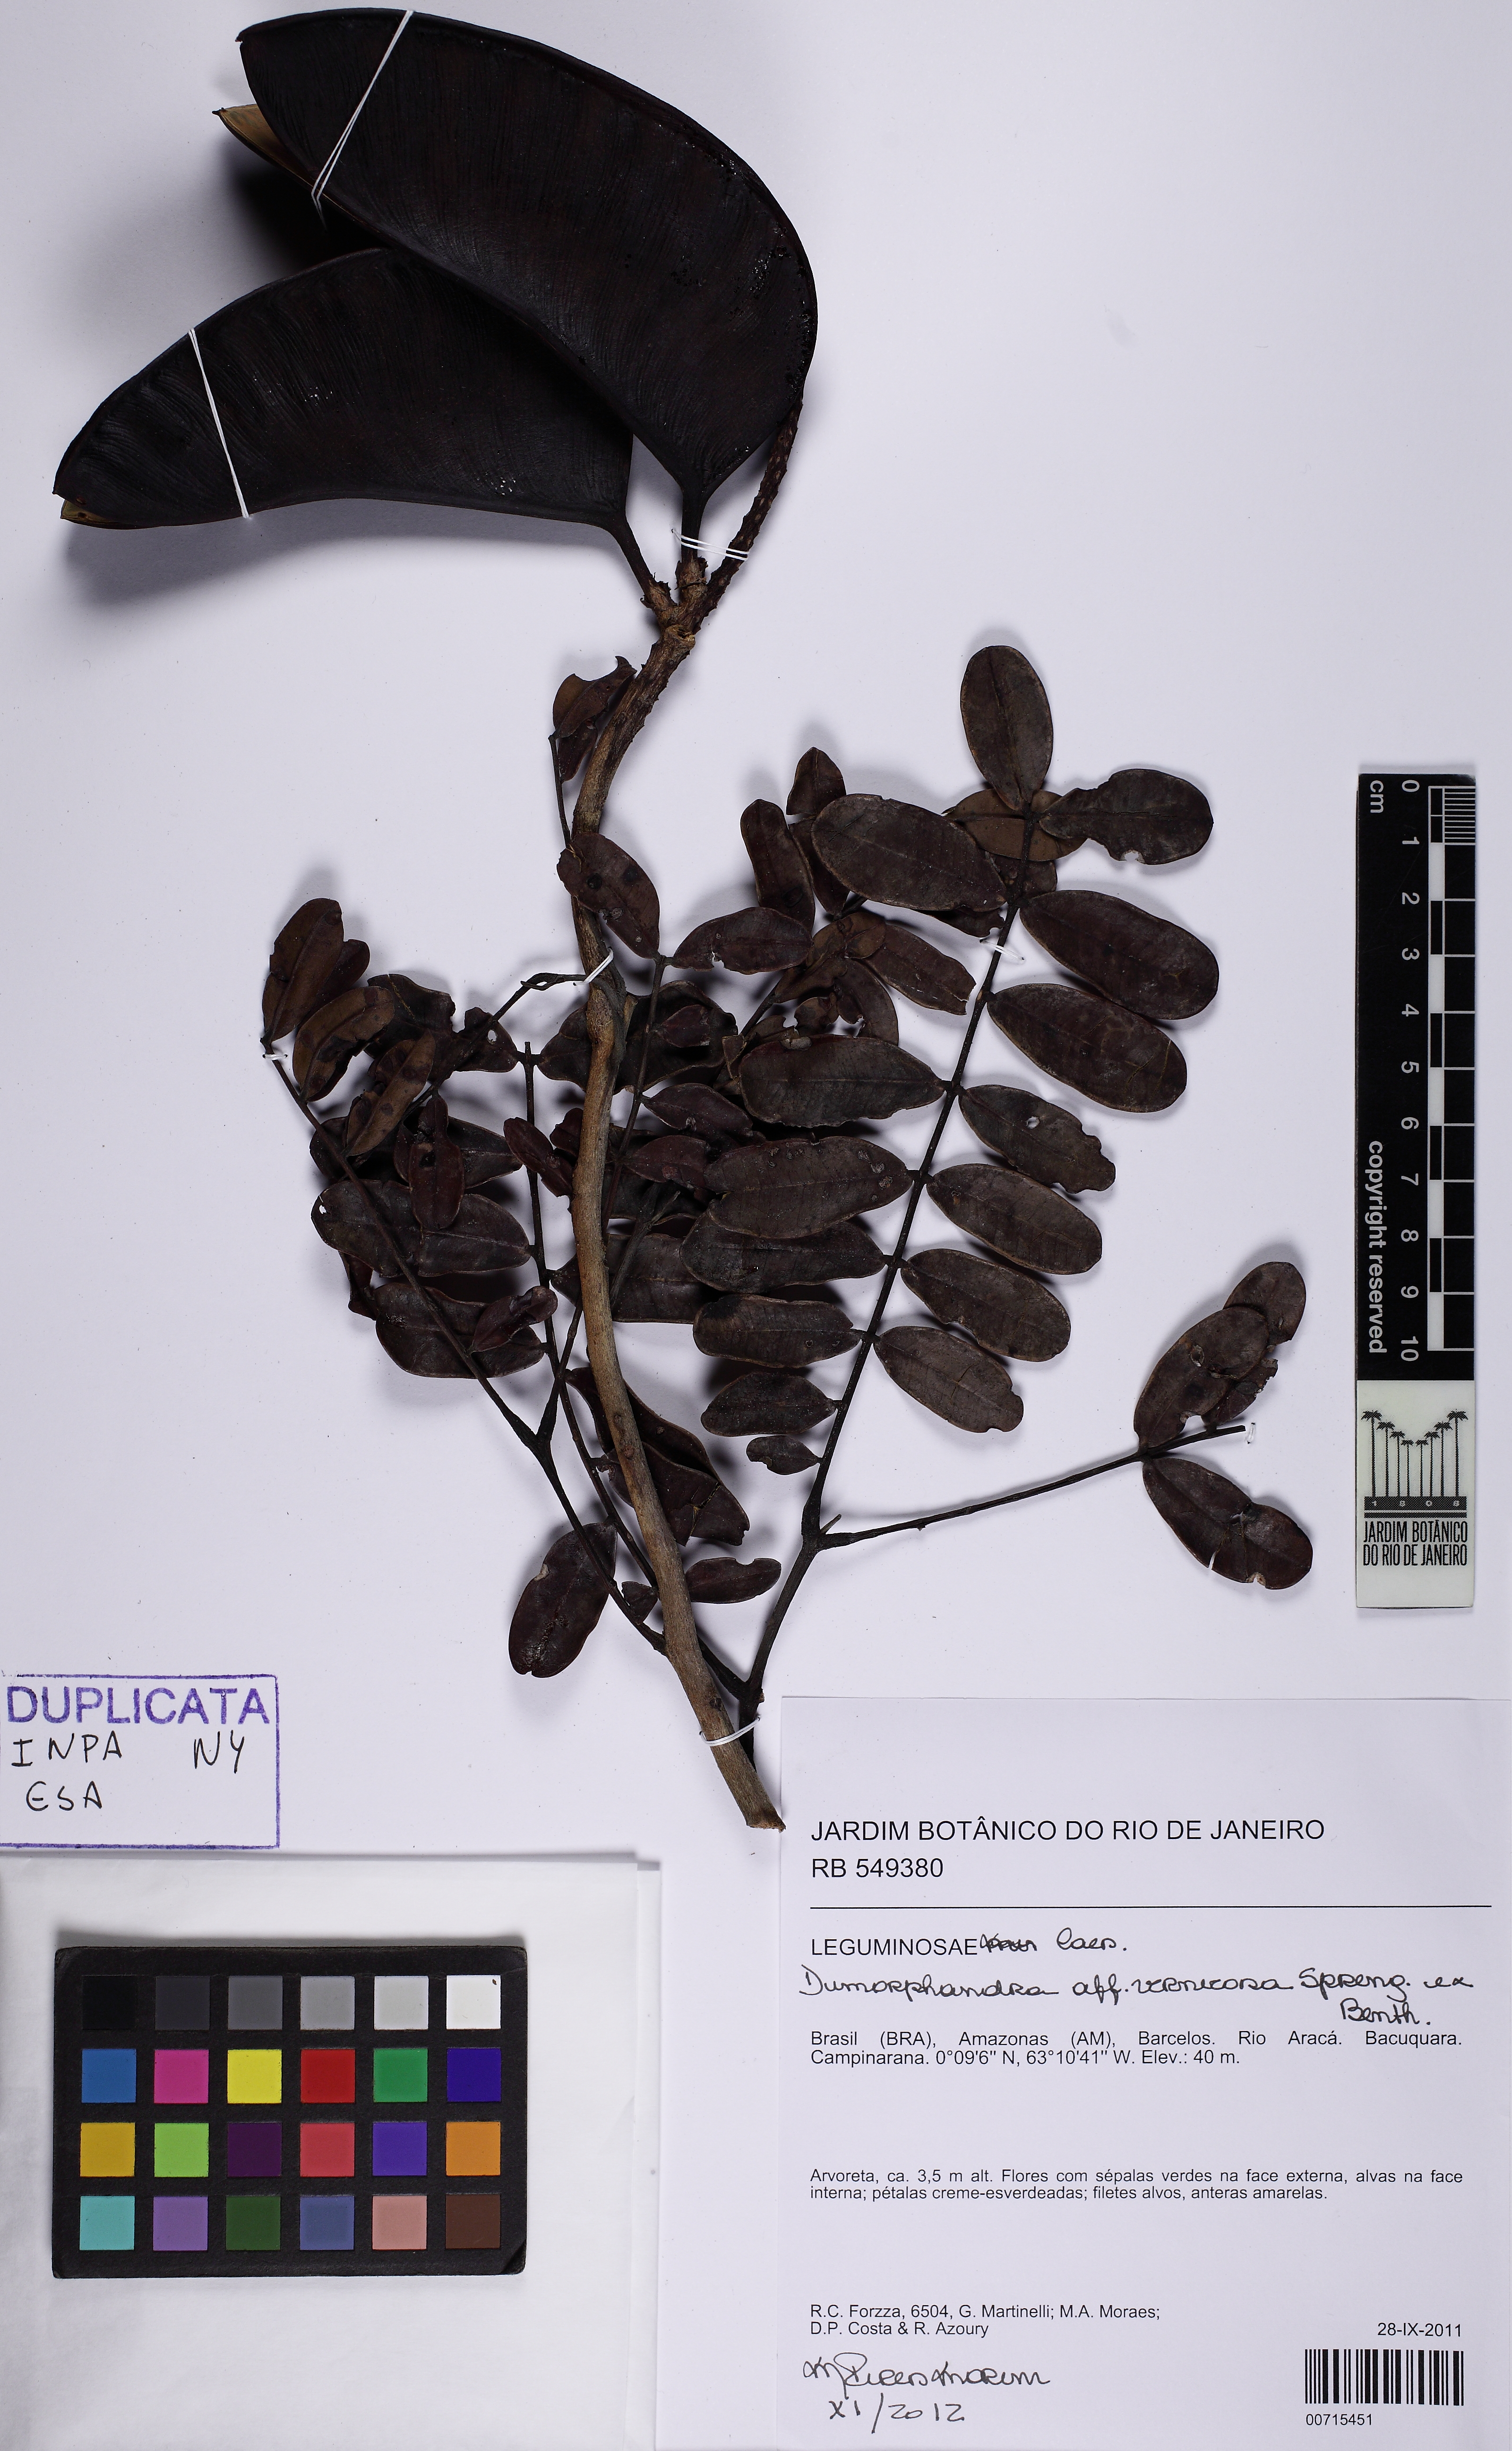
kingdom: Plantae
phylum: Tracheophyta
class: Magnoliopsida
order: Fabales
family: Fabaceae
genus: Dimorphandra
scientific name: Dimorphandra vernicosa
